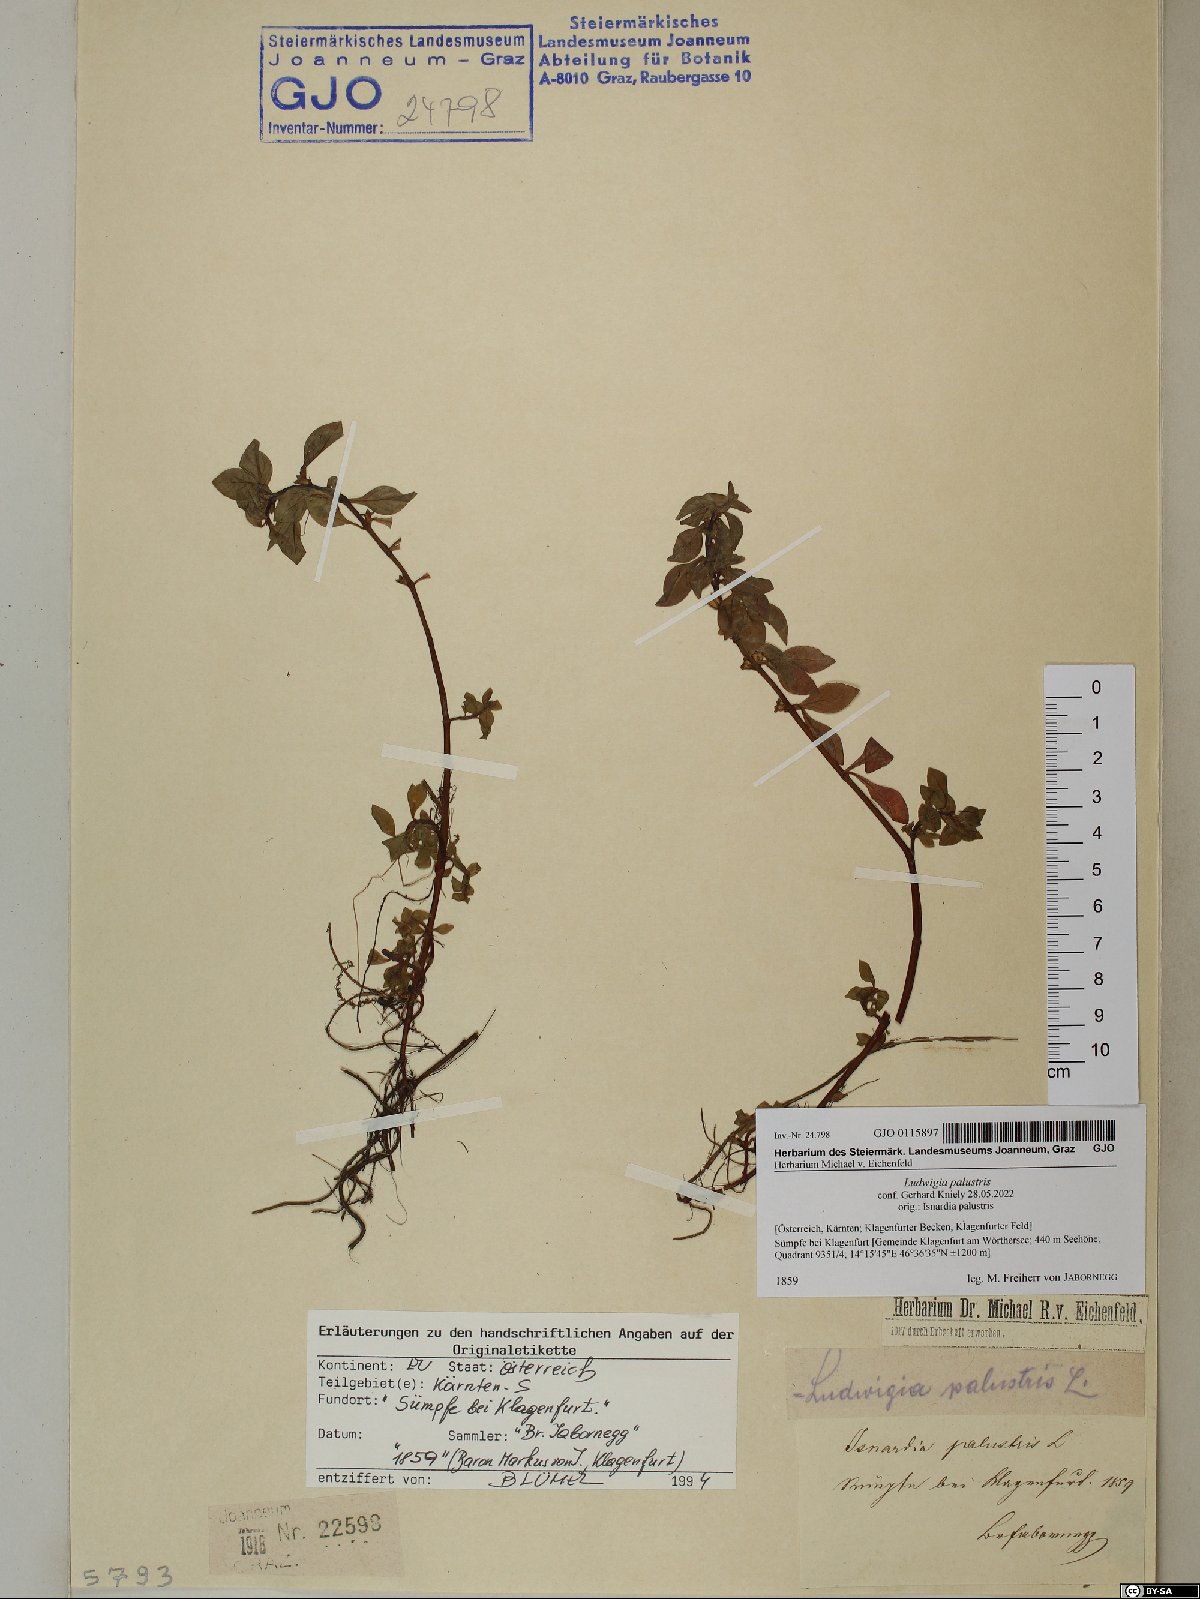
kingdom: Plantae
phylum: Tracheophyta
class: Magnoliopsida
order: Myrtales
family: Onagraceae
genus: Ludwigia
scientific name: Ludwigia palustris
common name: Hampshire-purslane
